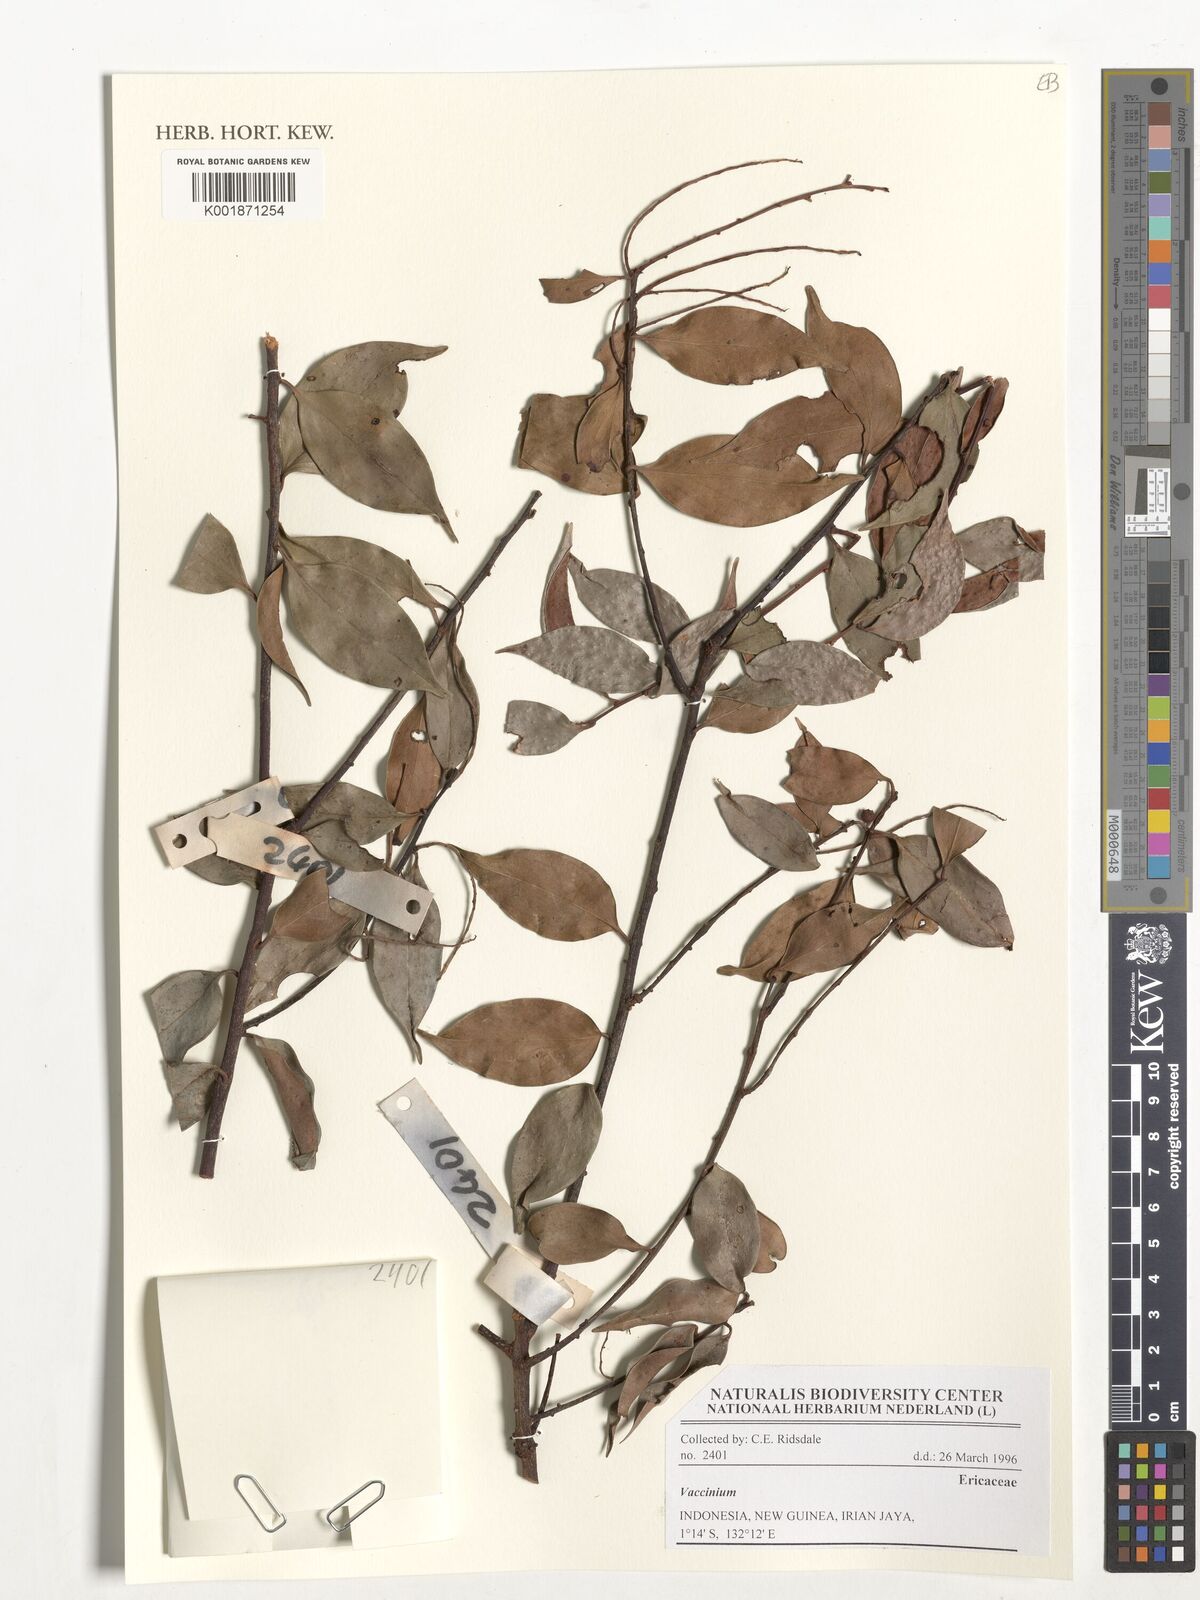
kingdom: Plantae
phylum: Tracheophyta
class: Magnoliopsida
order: Ericales
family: Ericaceae
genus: Vaccinium
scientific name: Vaccinium
